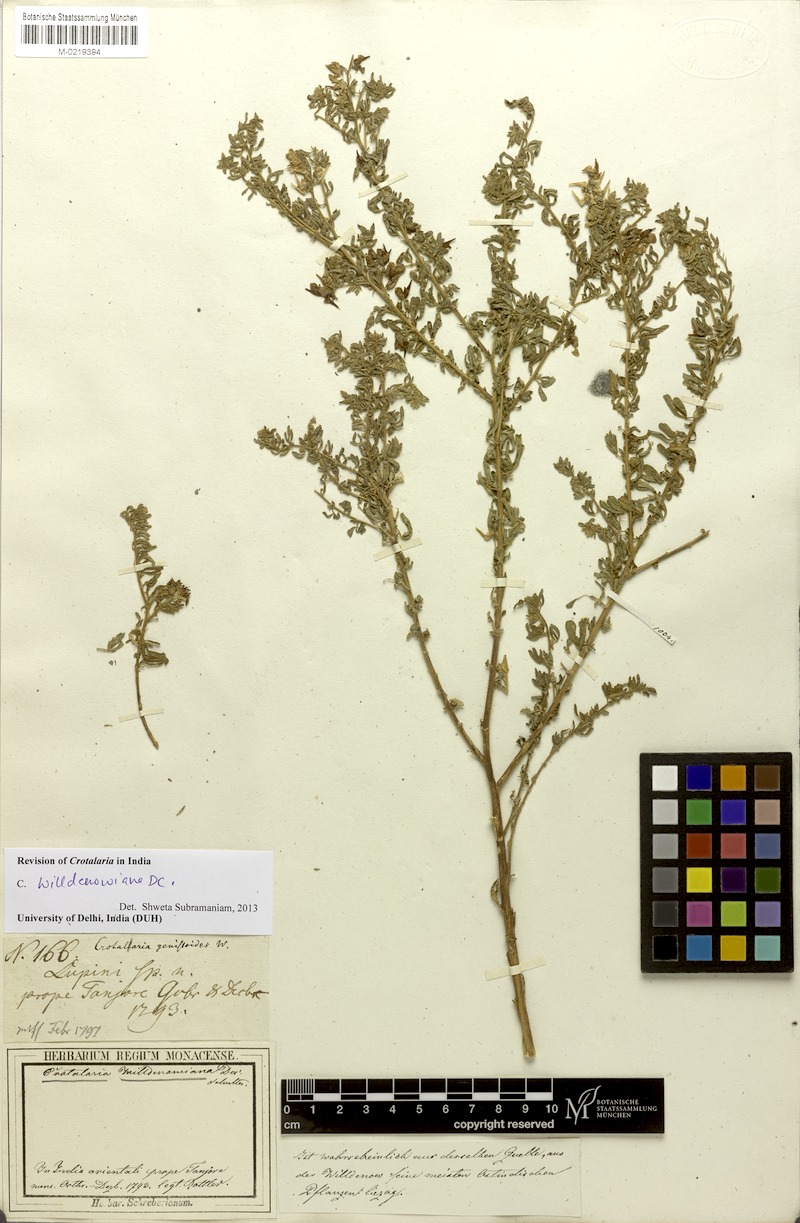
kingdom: Plantae
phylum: Tracheophyta
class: Magnoliopsida
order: Fabales
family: Fabaceae
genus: Crotalaria
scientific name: Crotalaria willdenowiana
